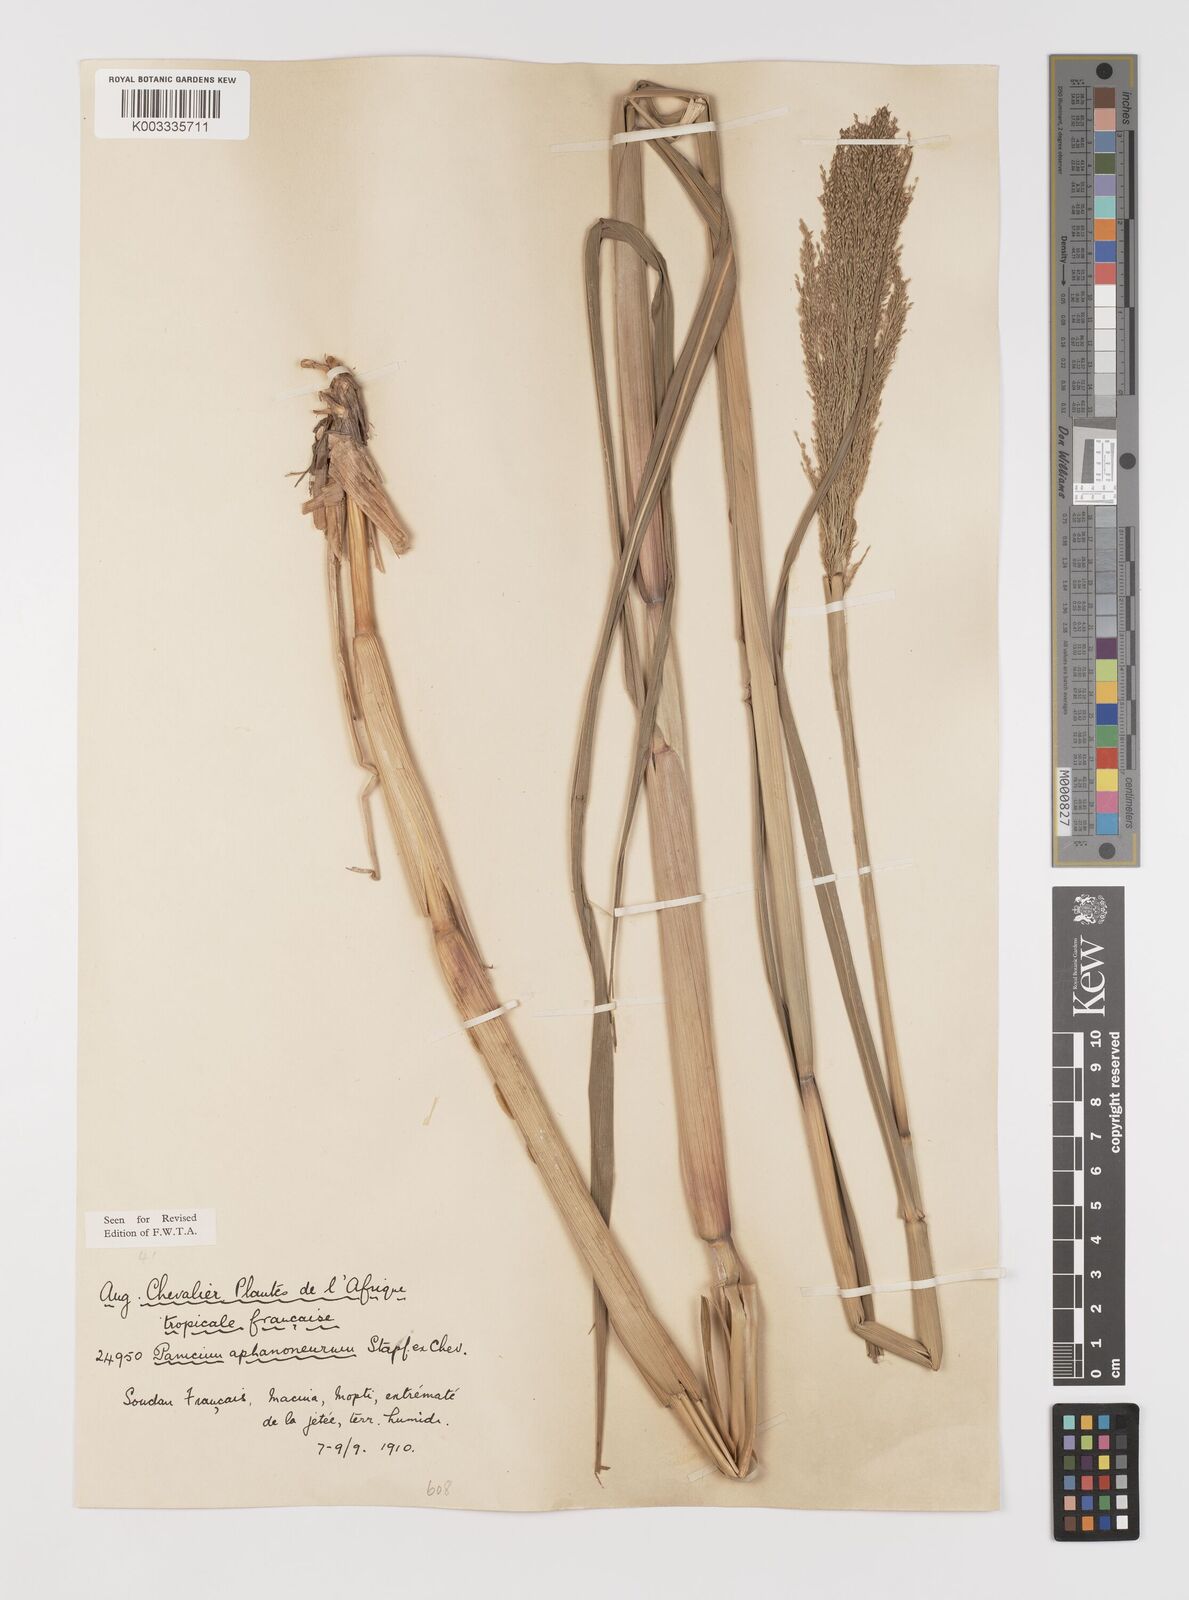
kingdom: Plantae
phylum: Tracheophyta
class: Liliopsida
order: Poales
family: Poaceae
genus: Panicum
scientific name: Panicum fluviicola
